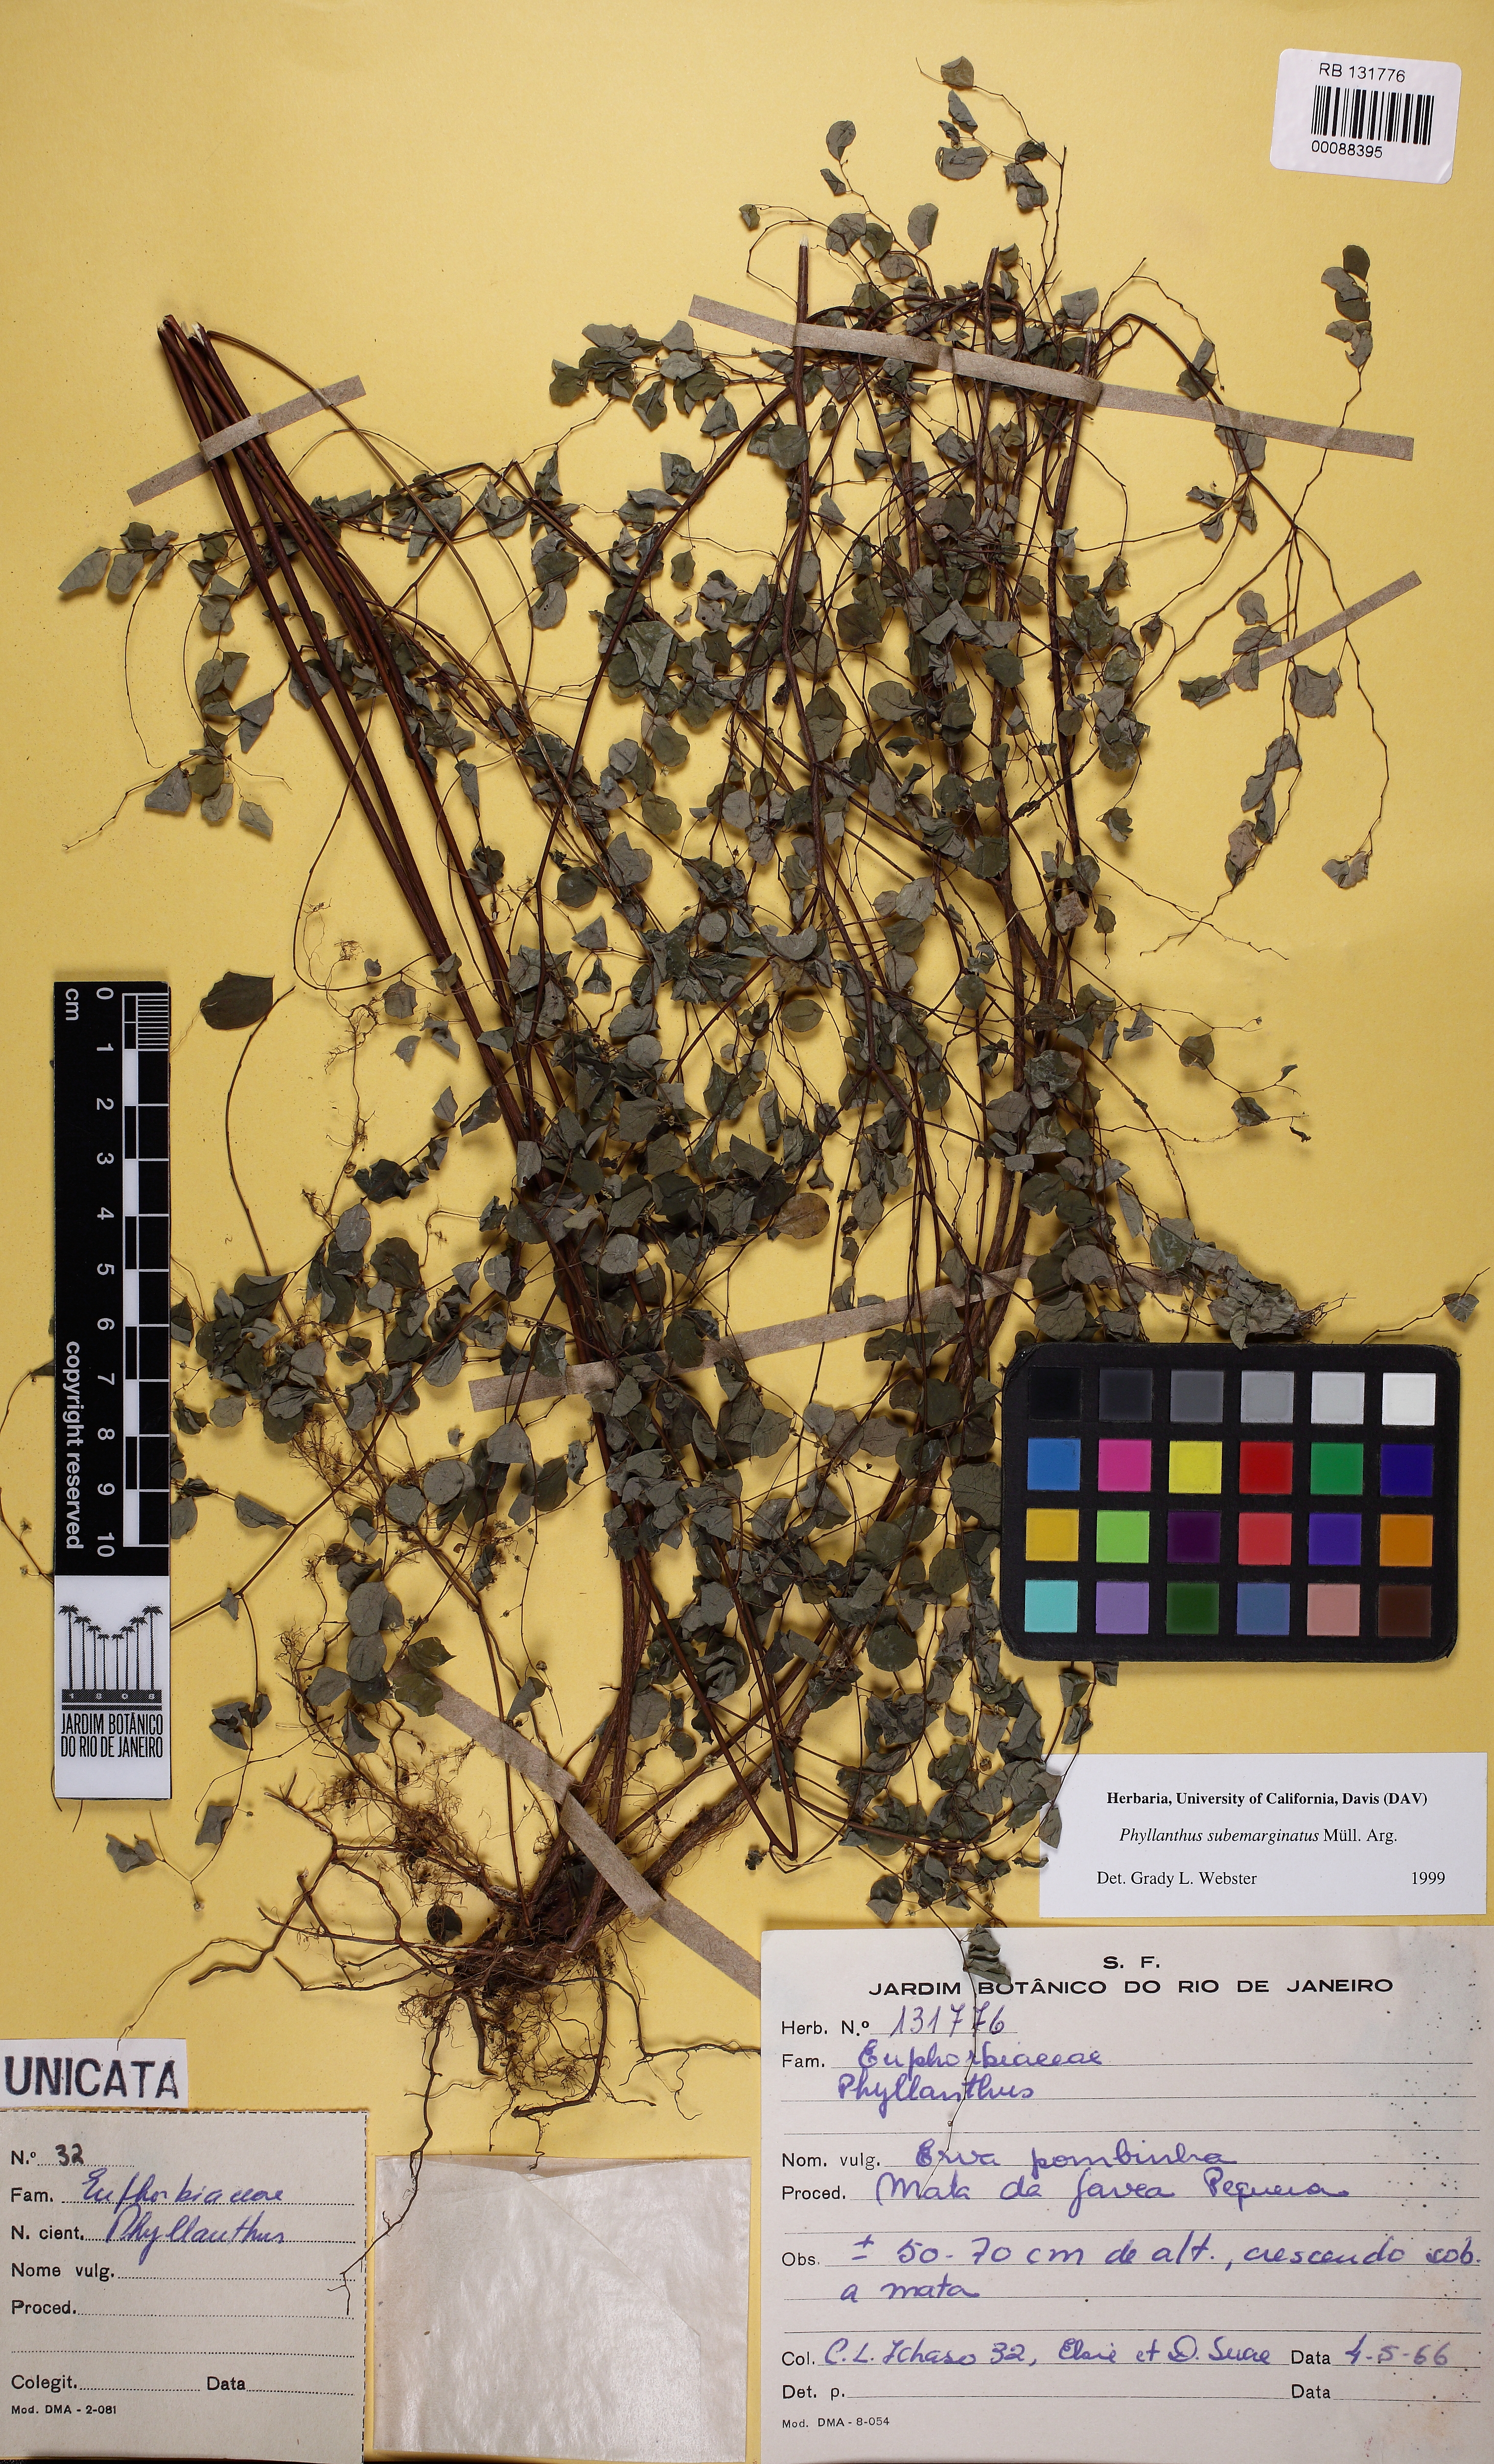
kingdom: Plantae
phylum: Tracheophyta
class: Magnoliopsida
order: Malpighiales
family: Phyllanthaceae
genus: Phyllanthus
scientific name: Phyllanthus subemarginatus
